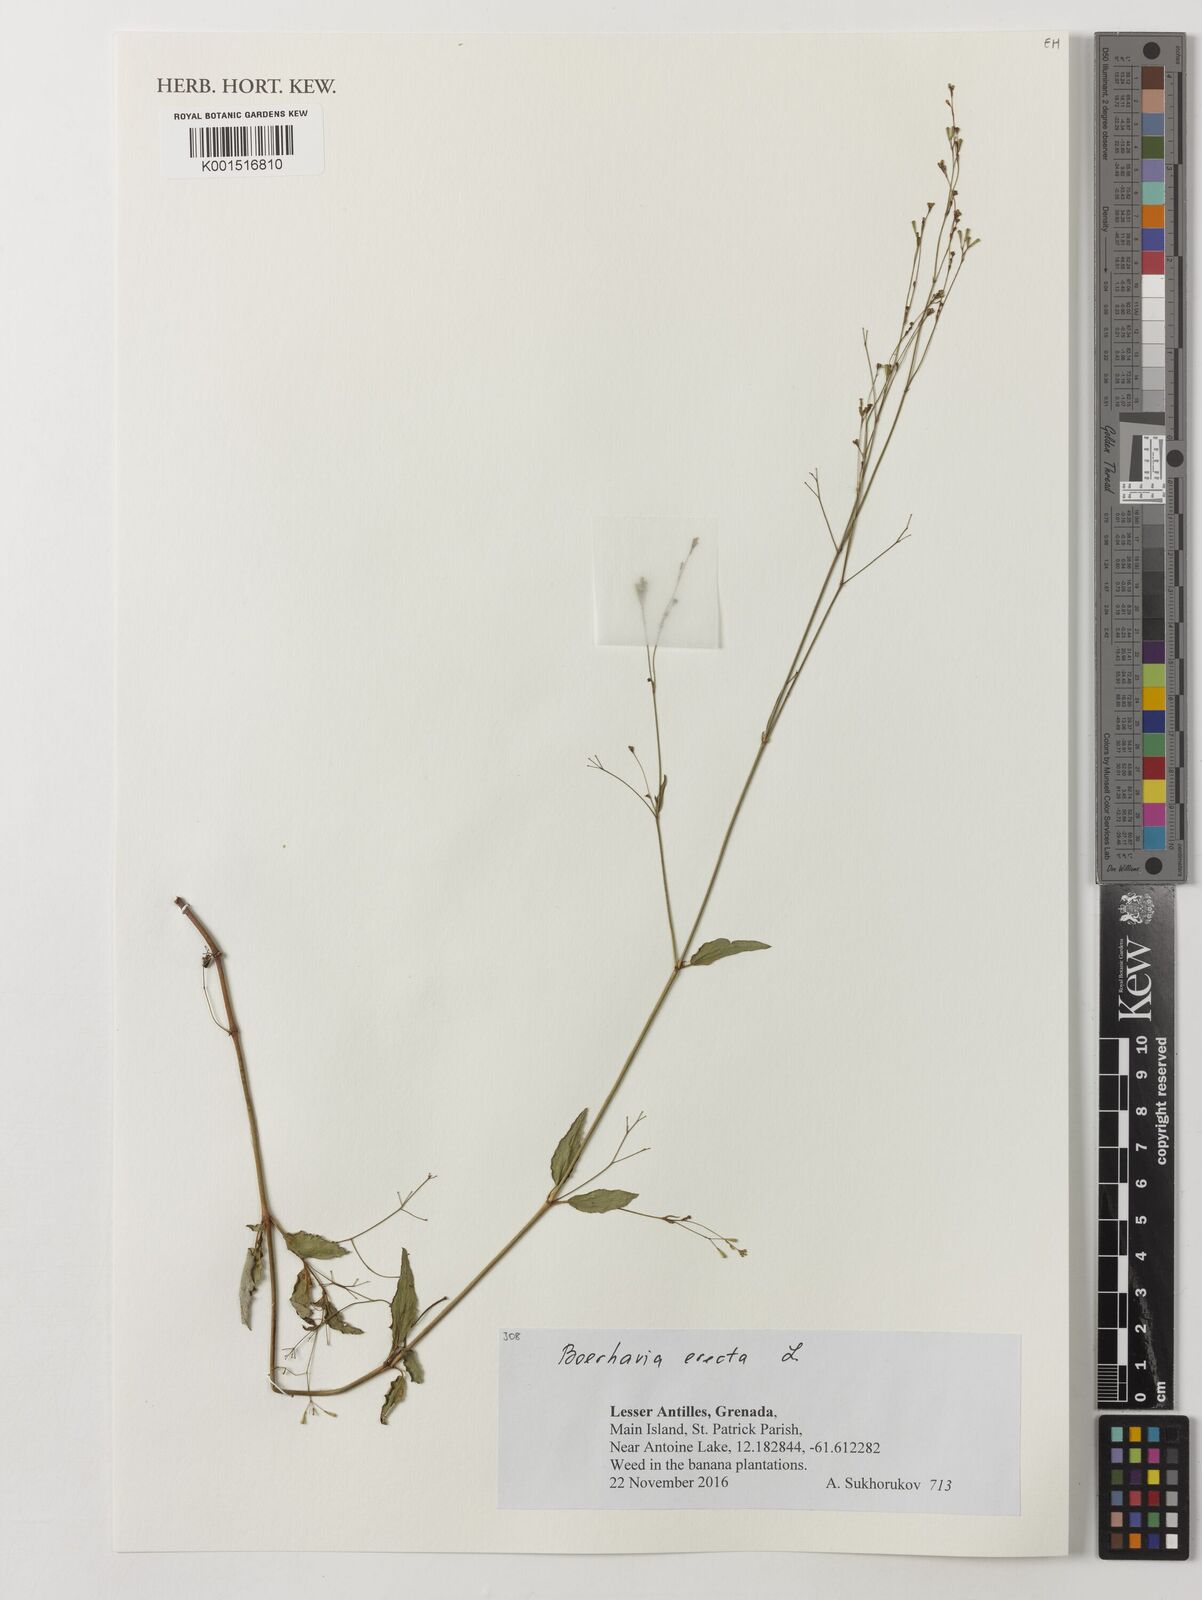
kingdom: Plantae
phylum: Tracheophyta
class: Magnoliopsida
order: Caryophyllales
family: Nyctaginaceae
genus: Boerhavia
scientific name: Boerhavia erecta
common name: Erect spiderling
